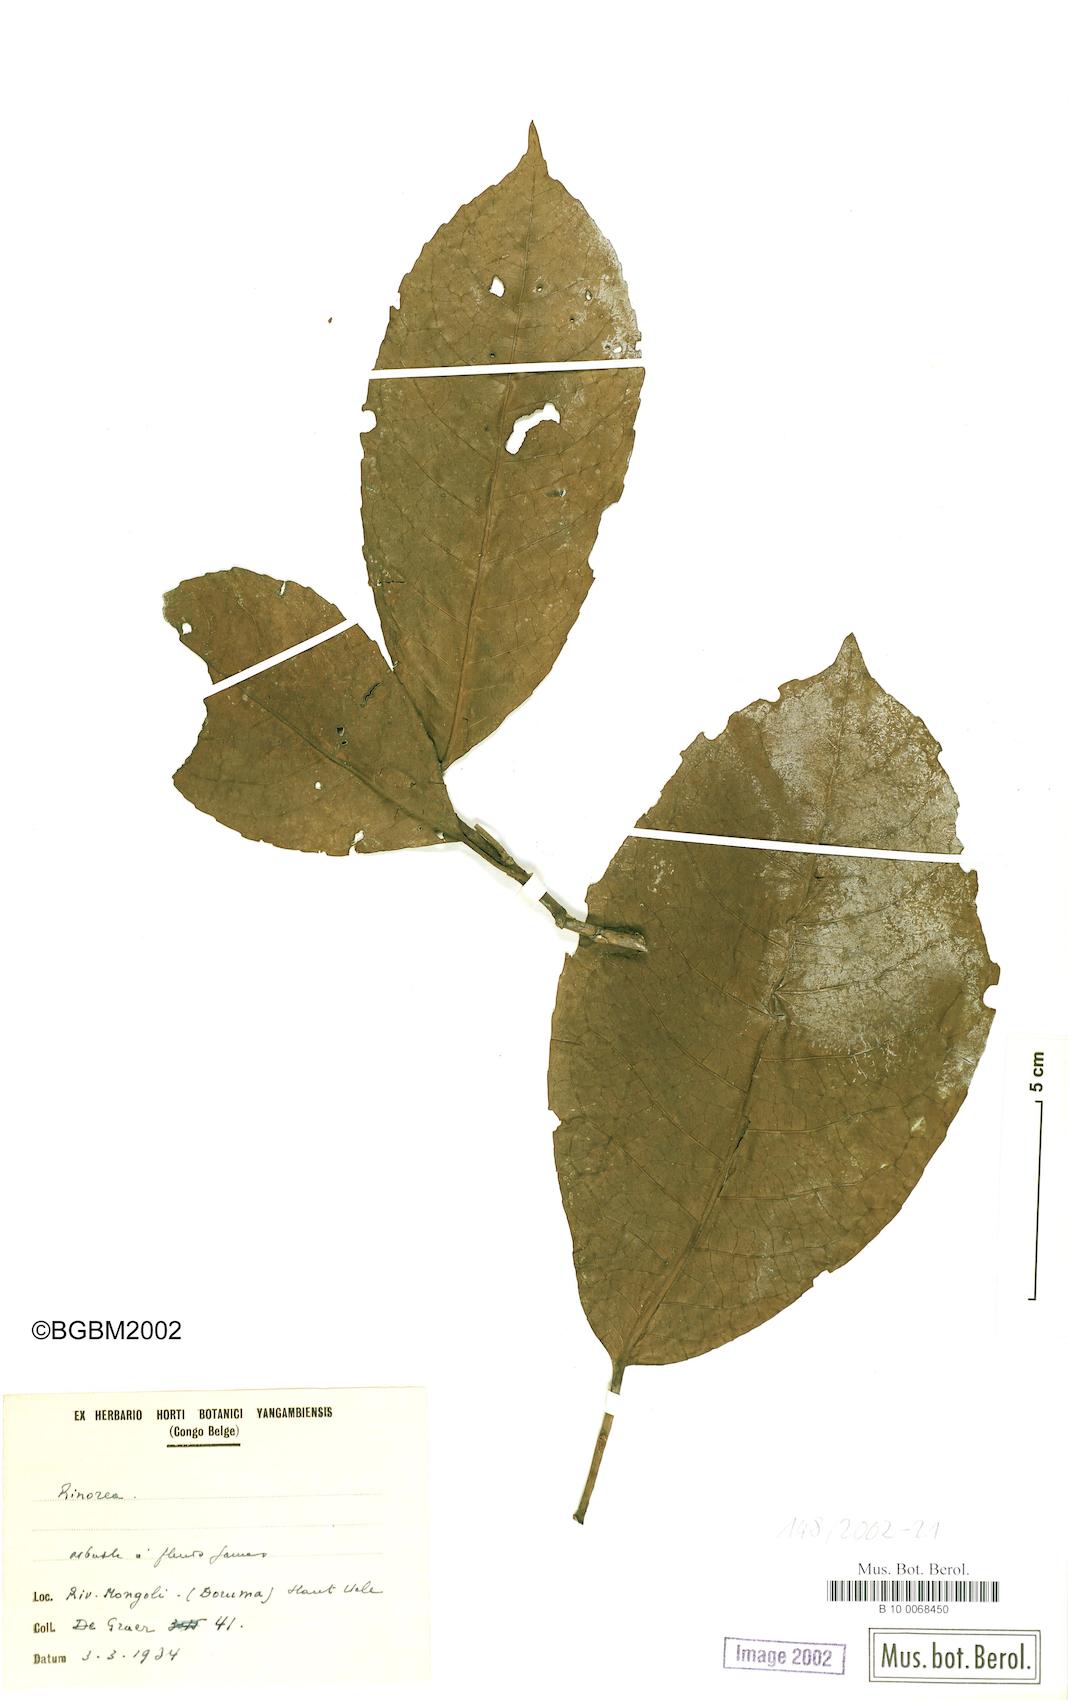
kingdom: Plantae
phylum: Tracheophyta
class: Magnoliopsida
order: Malpighiales
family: Violaceae
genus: Rinorea
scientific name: Rinorea
